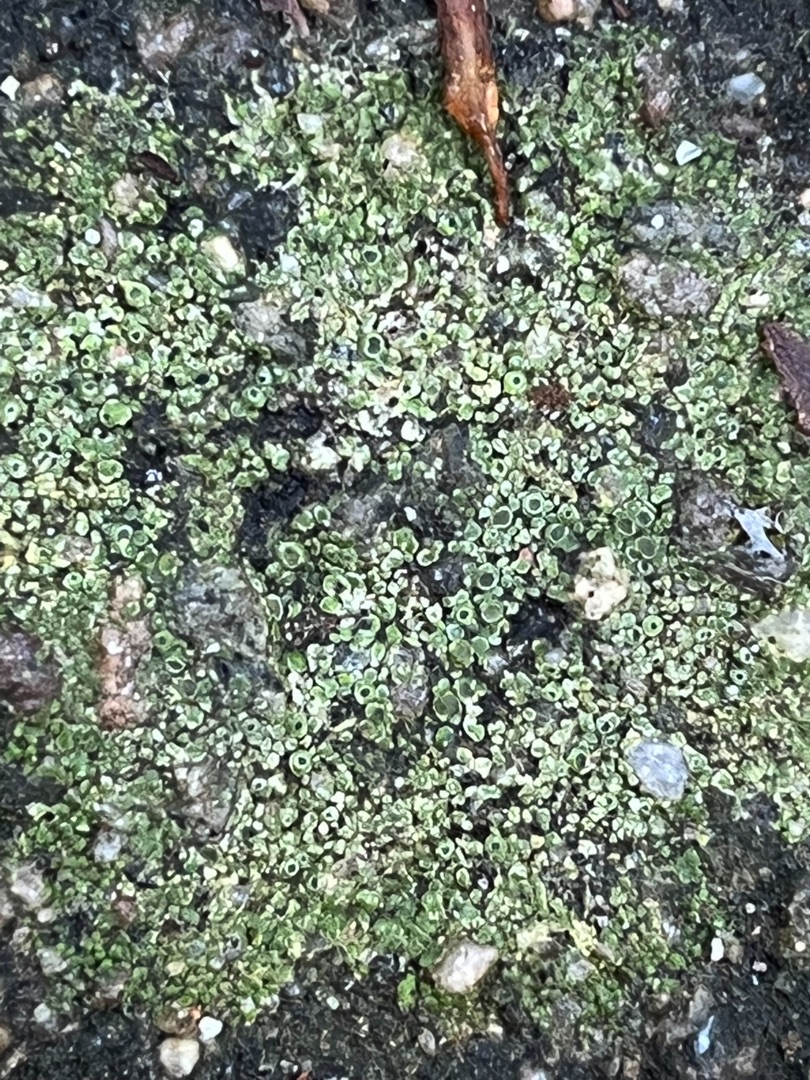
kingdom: Fungi
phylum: Ascomycota
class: Lecanoromycetes
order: Pertusariales
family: Megasporaceae
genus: Circinaria
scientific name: Circinaria contorta
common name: Indviklet hulskivelav
